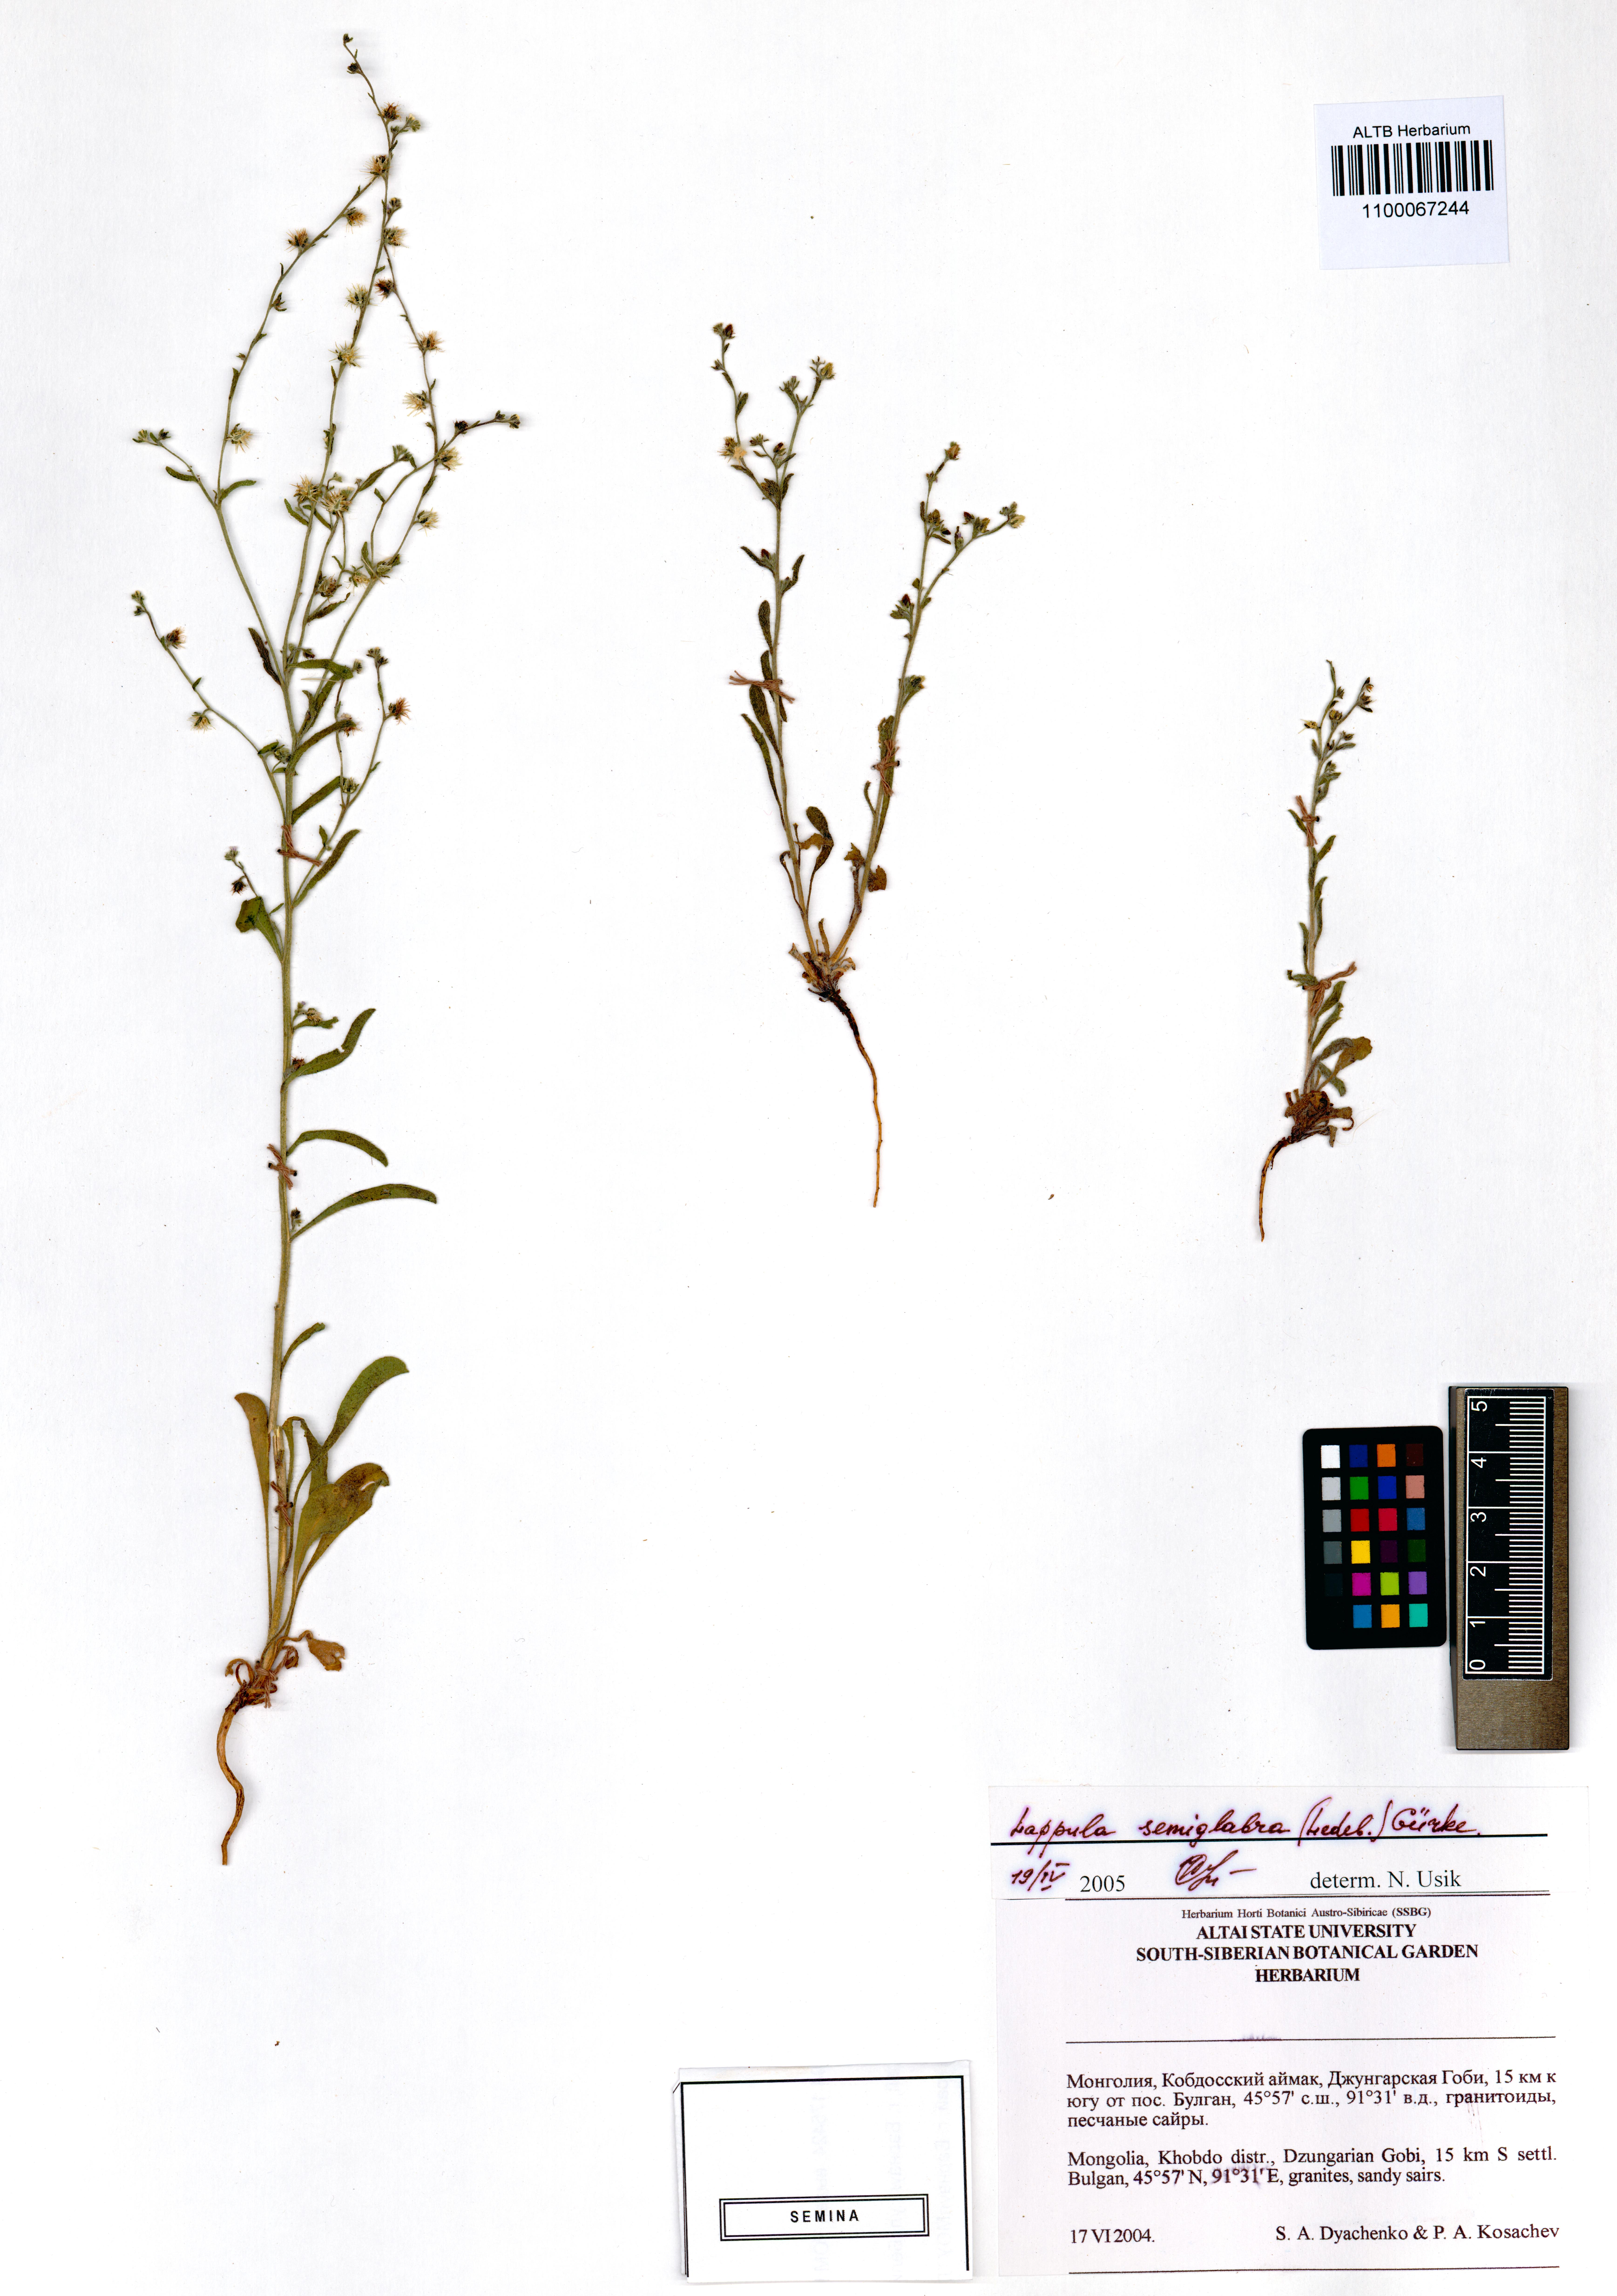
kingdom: Plantae
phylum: Tracheophyta
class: Magnoliopsida
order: Boraginales
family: Boraginaceae
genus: Lappula
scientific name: Lappula patula
